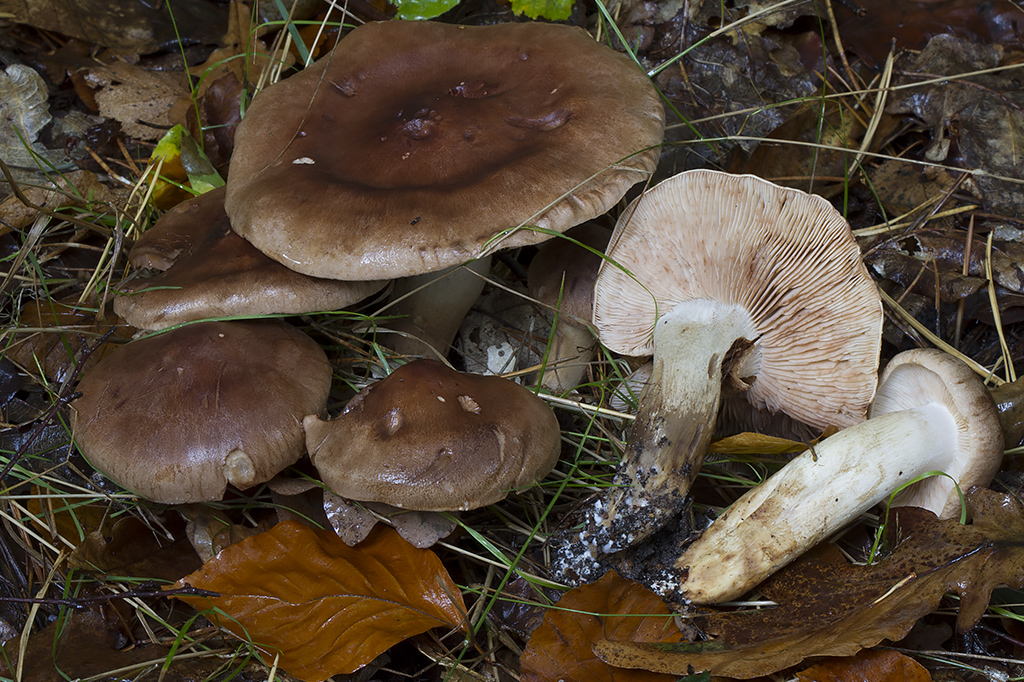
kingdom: Fungi
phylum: Basidiomycota
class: Agaricomycetes
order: Agaricales
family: Tricholomataceae
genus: Tricholoma
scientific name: Tricholoma imbricatum
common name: skællet ridderhat
